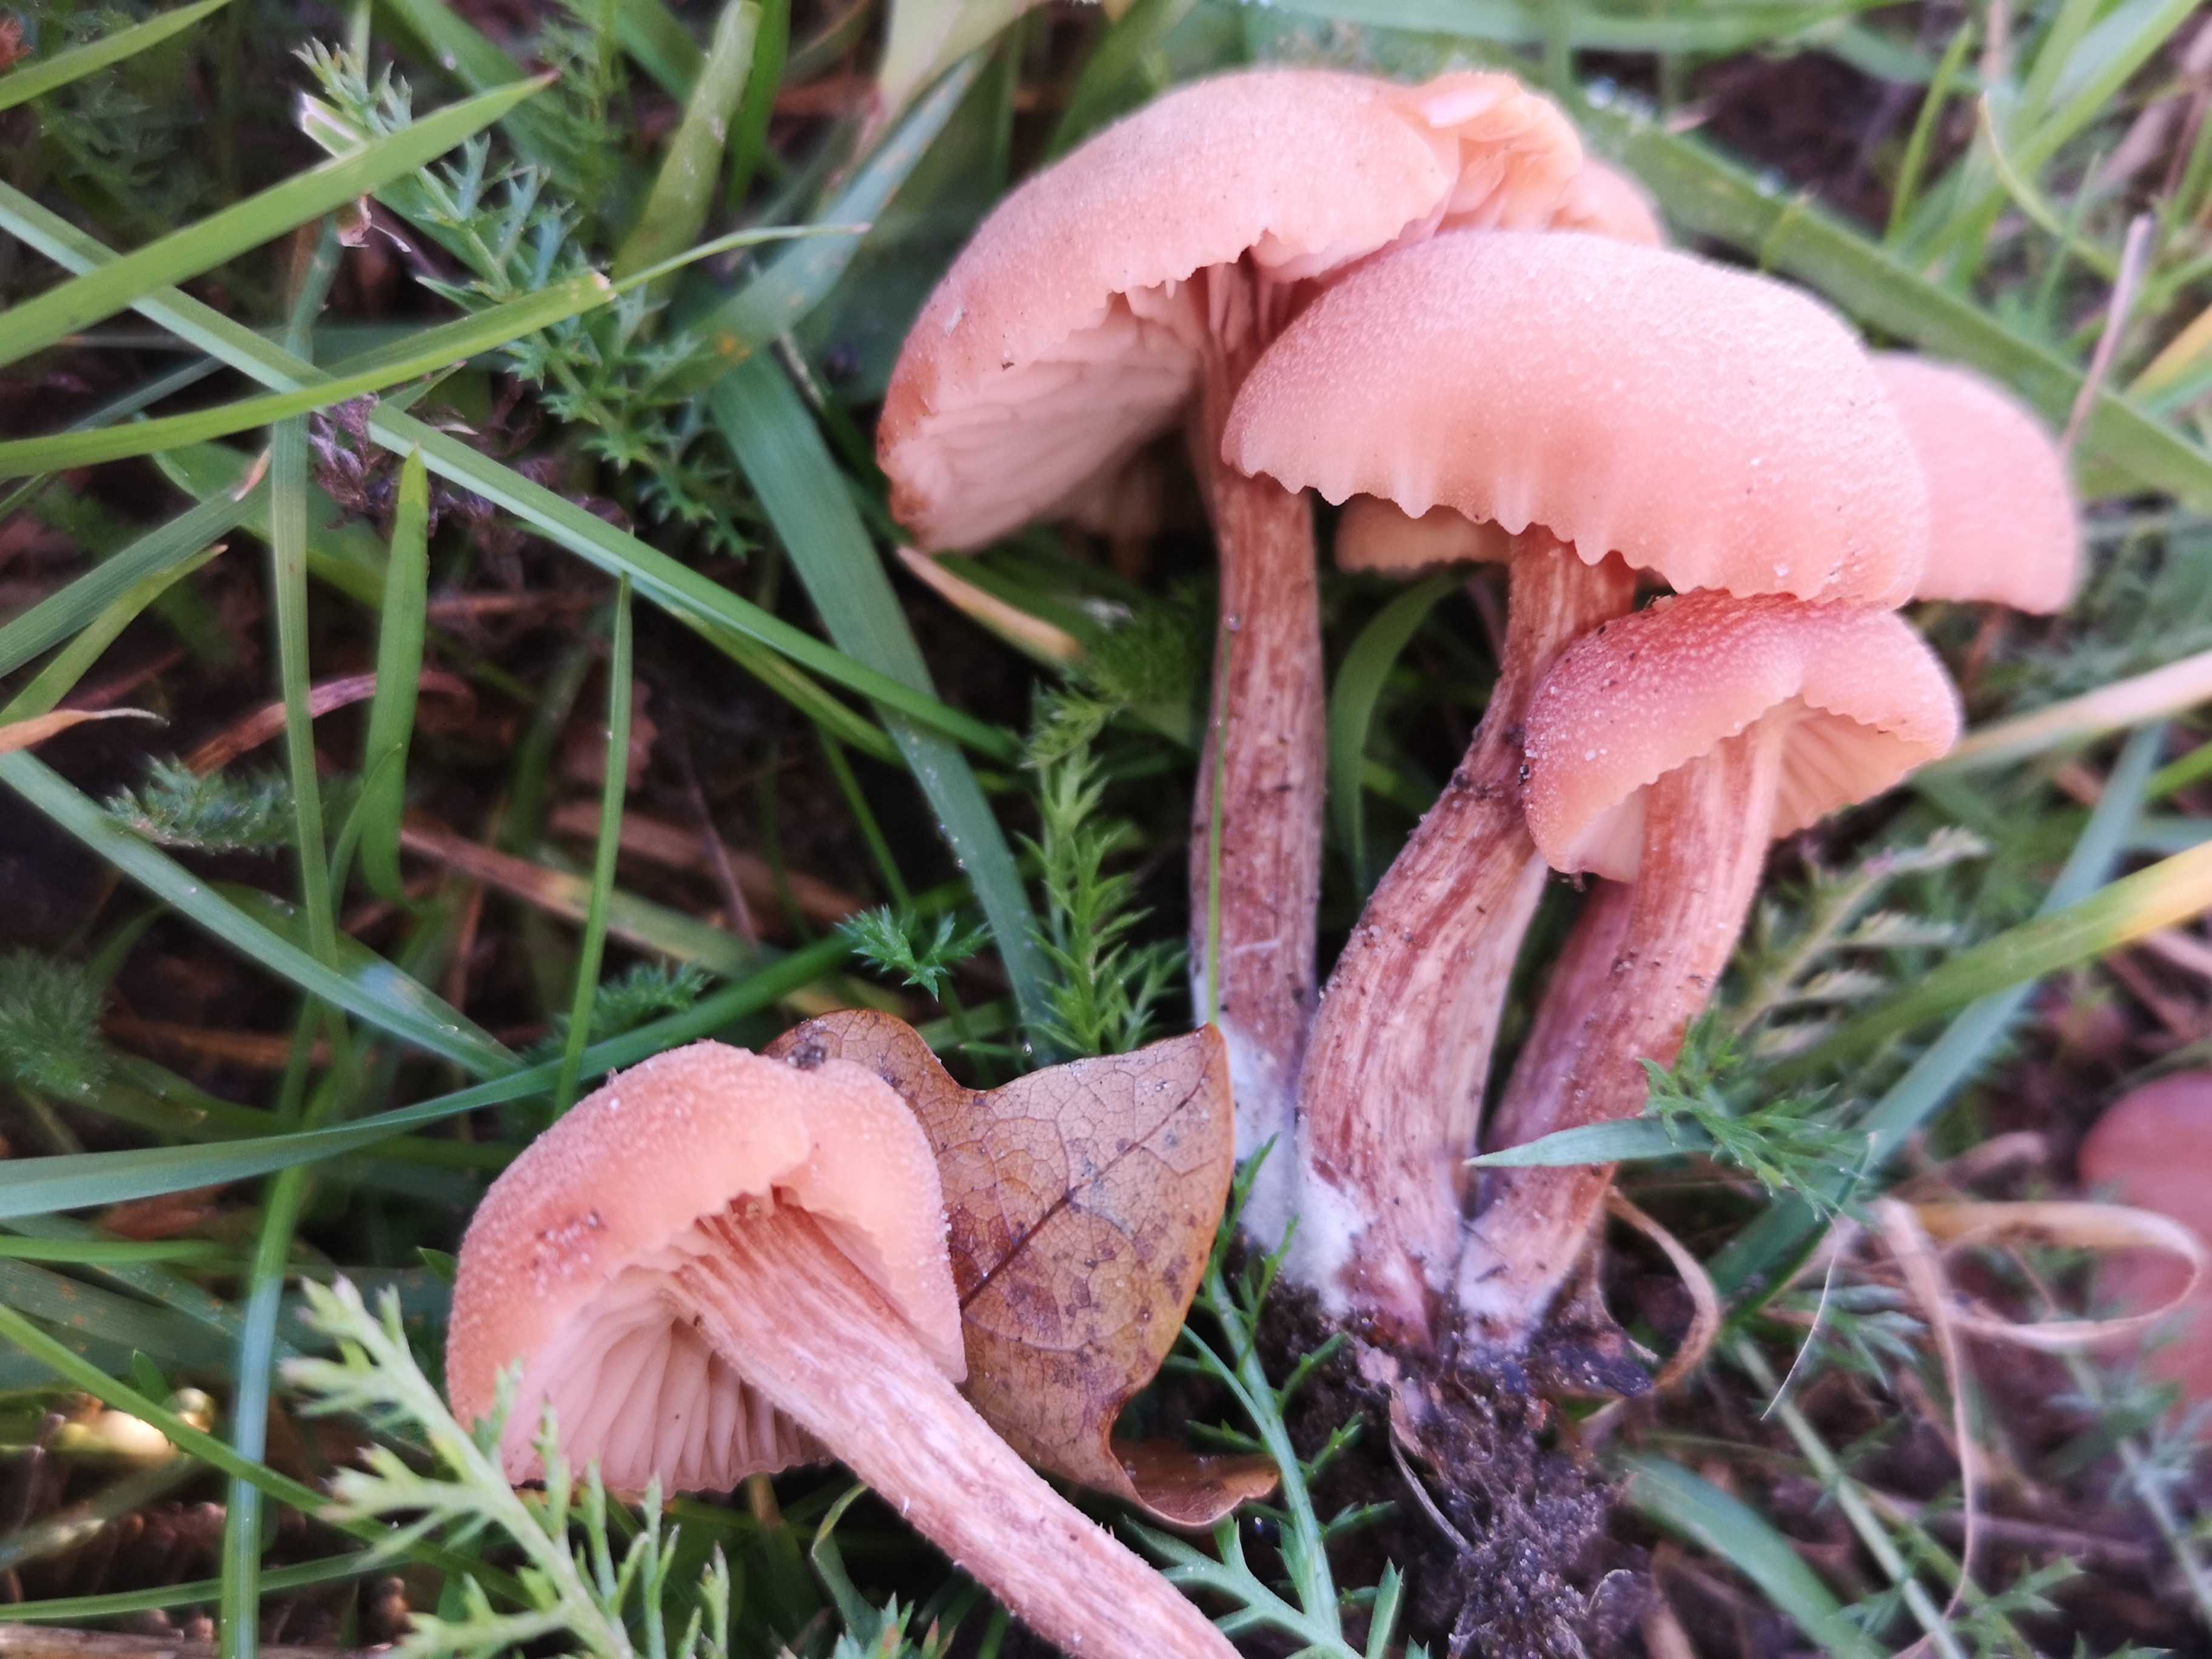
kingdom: Fungi
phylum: Basidiomycota
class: Agaricomycetes
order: Agaricales
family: Hydnangiaceae
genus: Laccaria
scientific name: Laccaria laccata
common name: rød ametysthat
